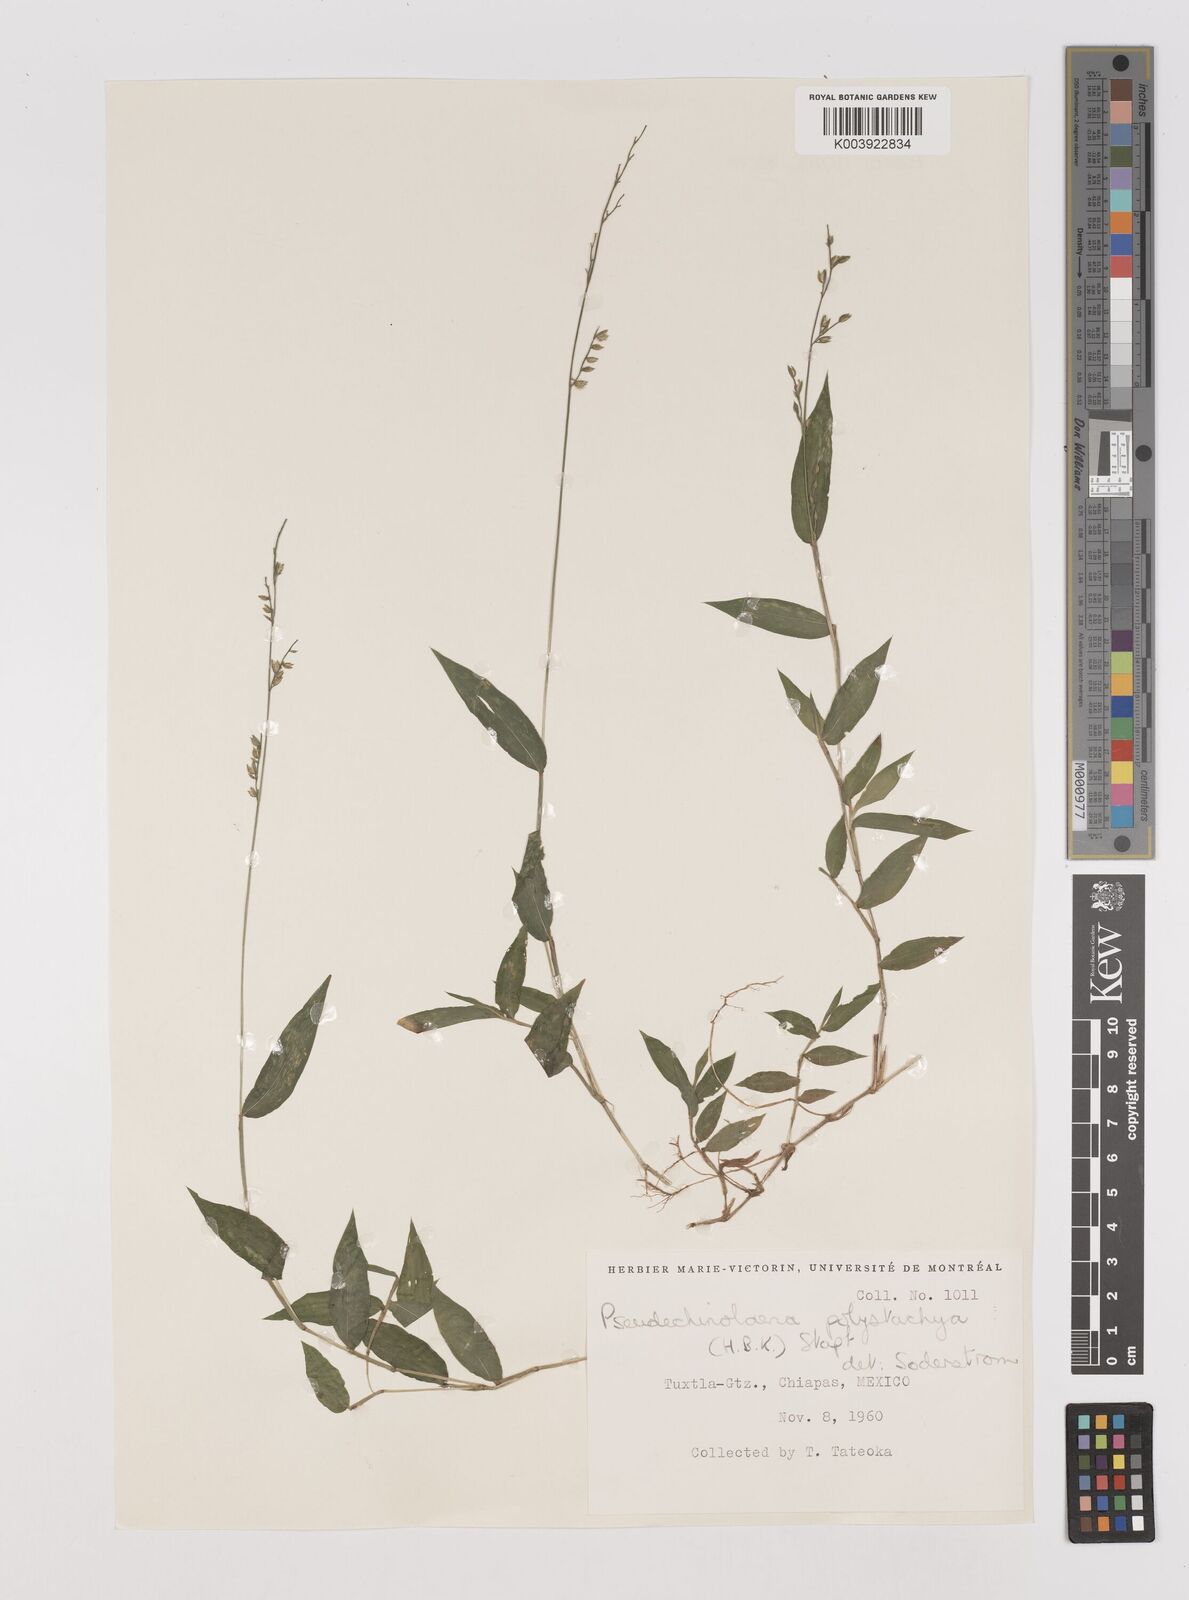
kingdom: Plantae
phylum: Tracheophyta
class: Liliopsida
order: Poales
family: Poaceae
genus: Pseudechinolaena
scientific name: Pseudechinolaena polystachya
